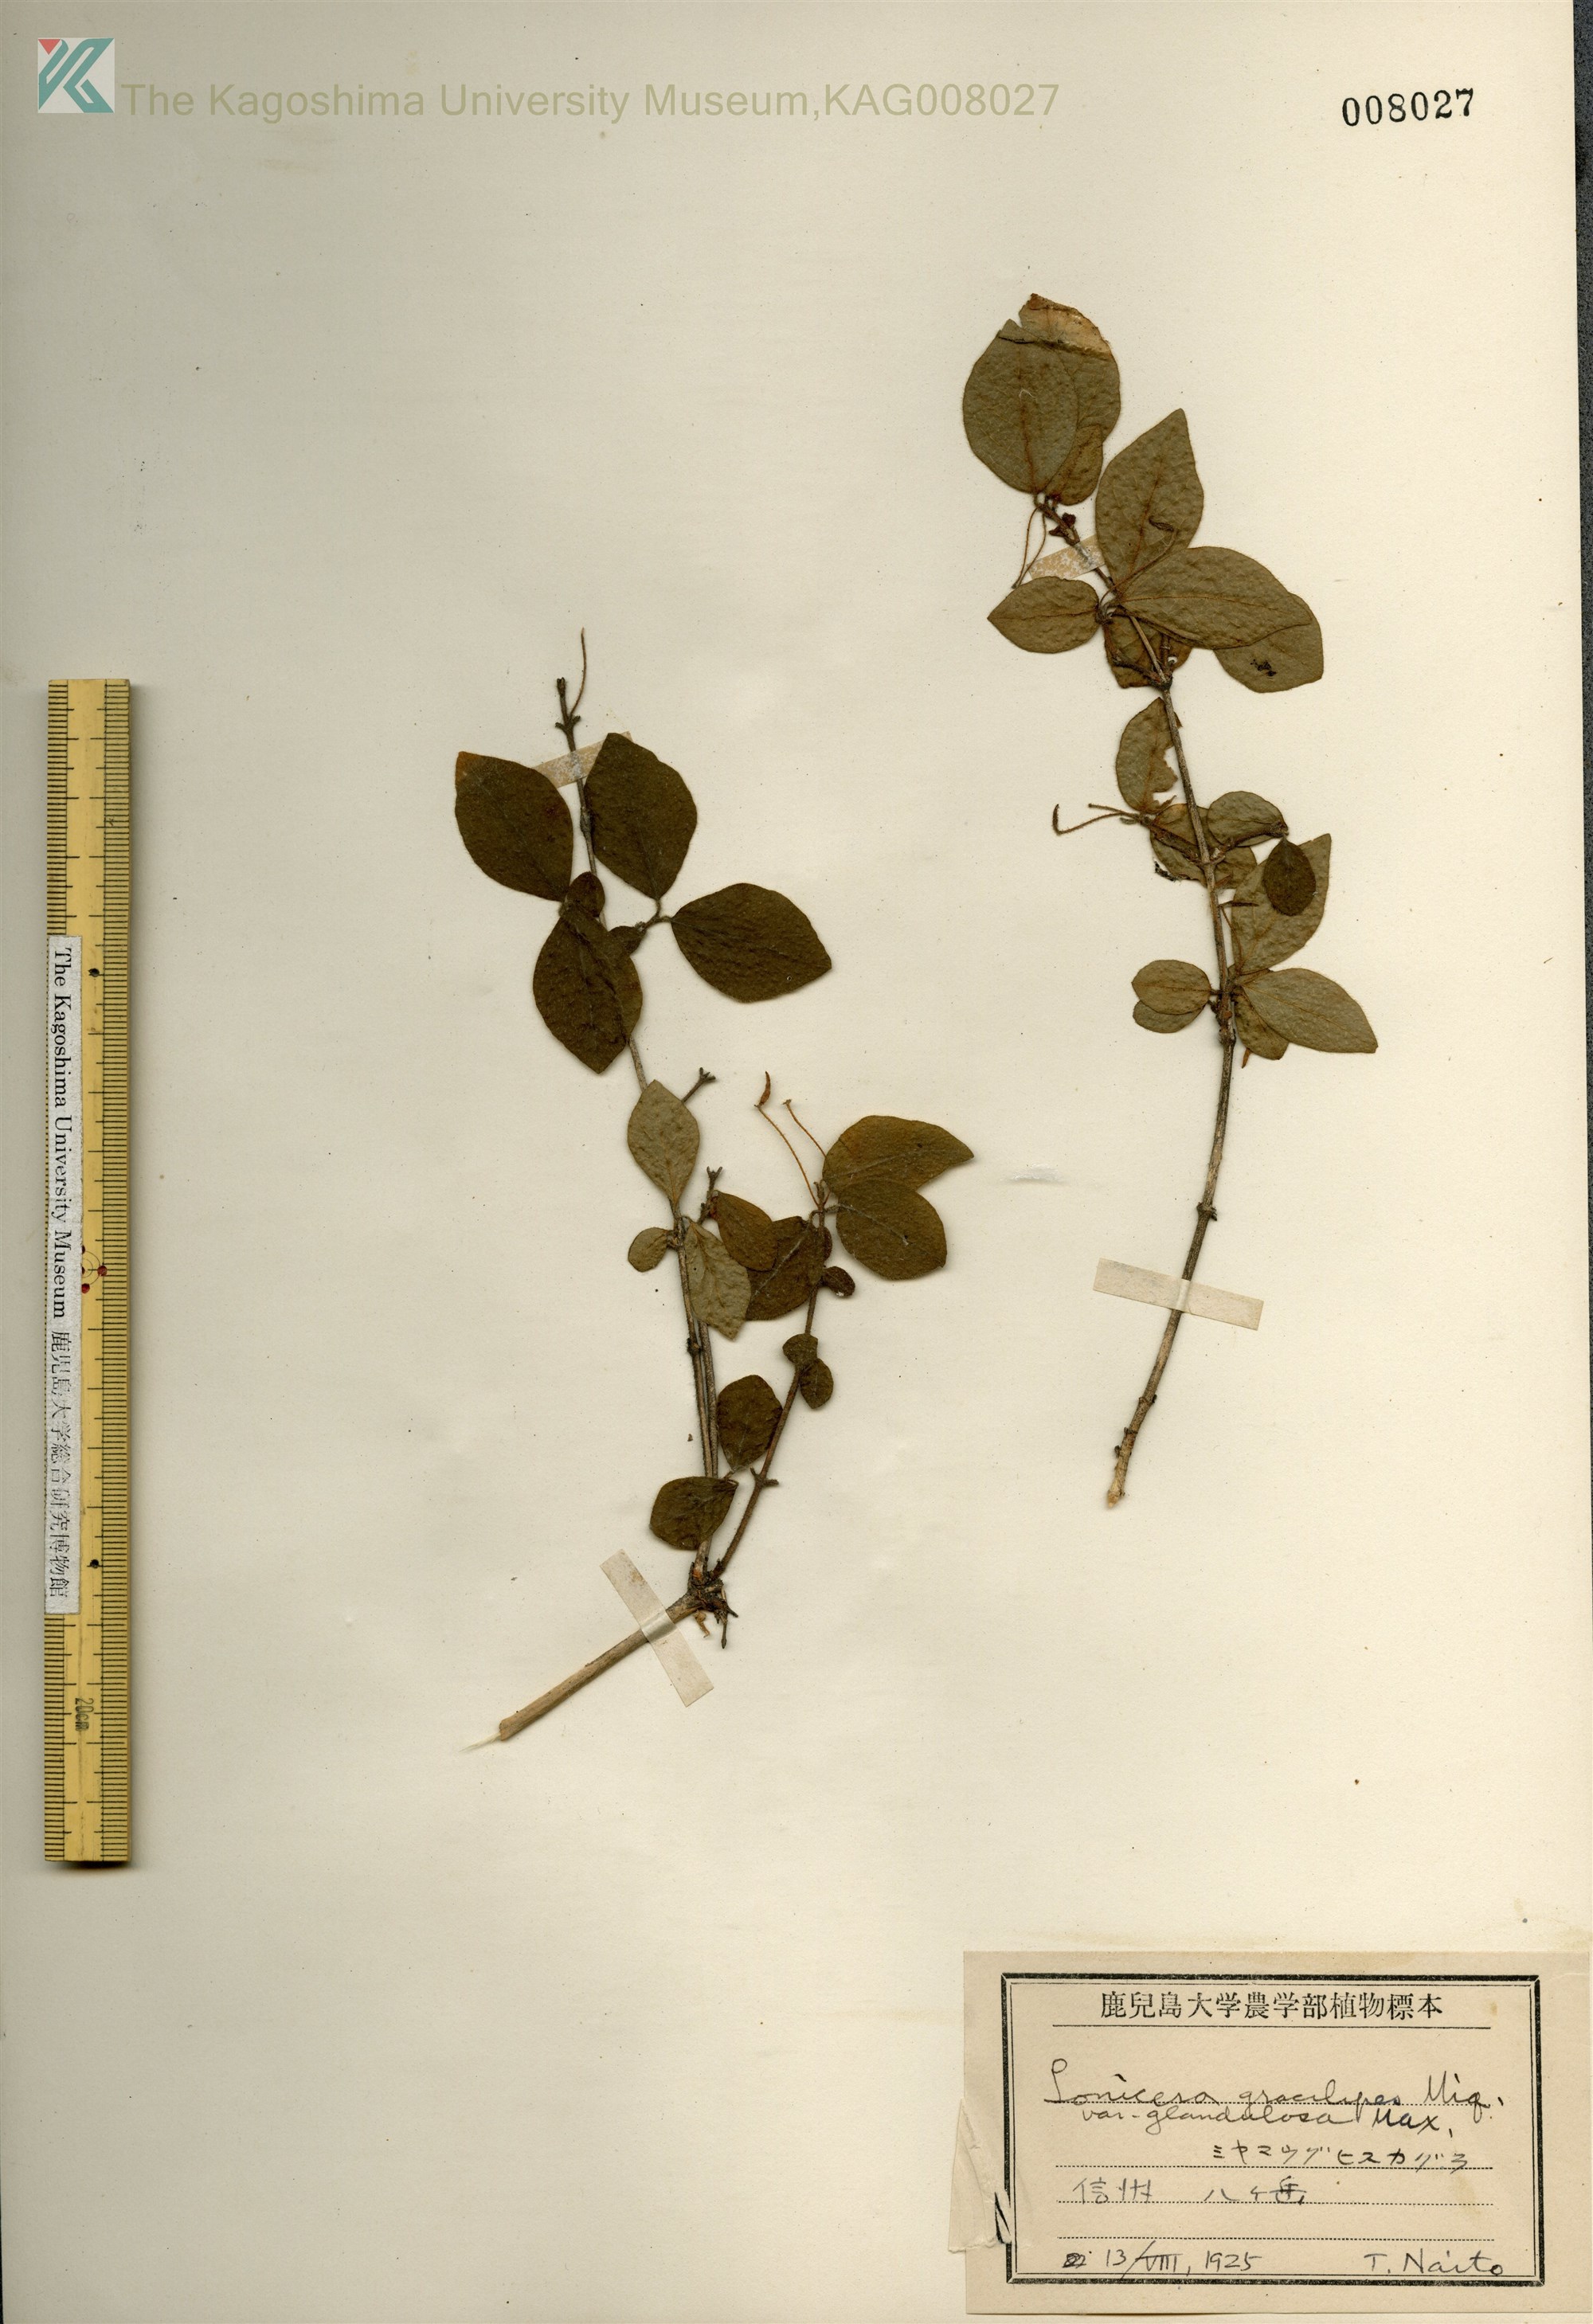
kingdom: Plantae
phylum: Tracheophyta
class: Magnoliopsida
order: Dipsacales
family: Caprifoliaceae
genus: Lonicera
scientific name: Lonicera gracilipes
